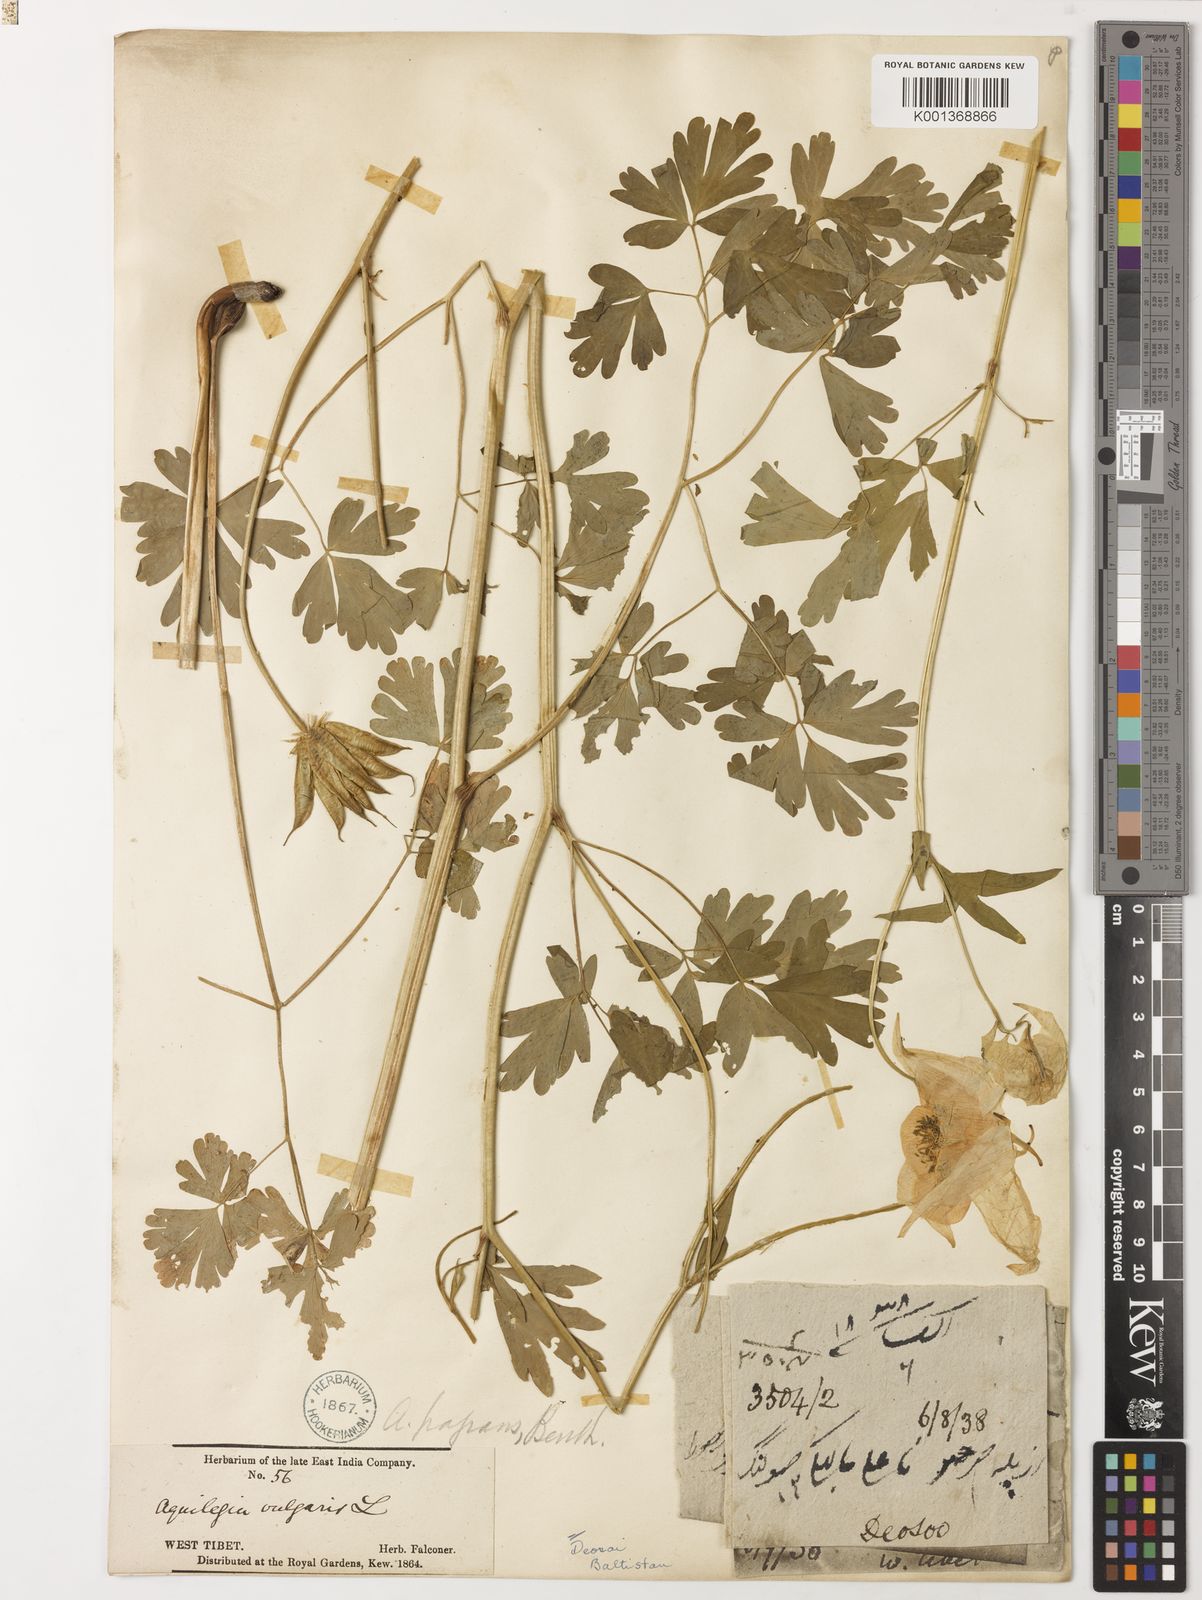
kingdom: Plantae
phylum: Tracheophyta
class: Magnoliopsida
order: Ranunculales
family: Ranunculaceae
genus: Aquilegia
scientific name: Aquilegia fragrans
